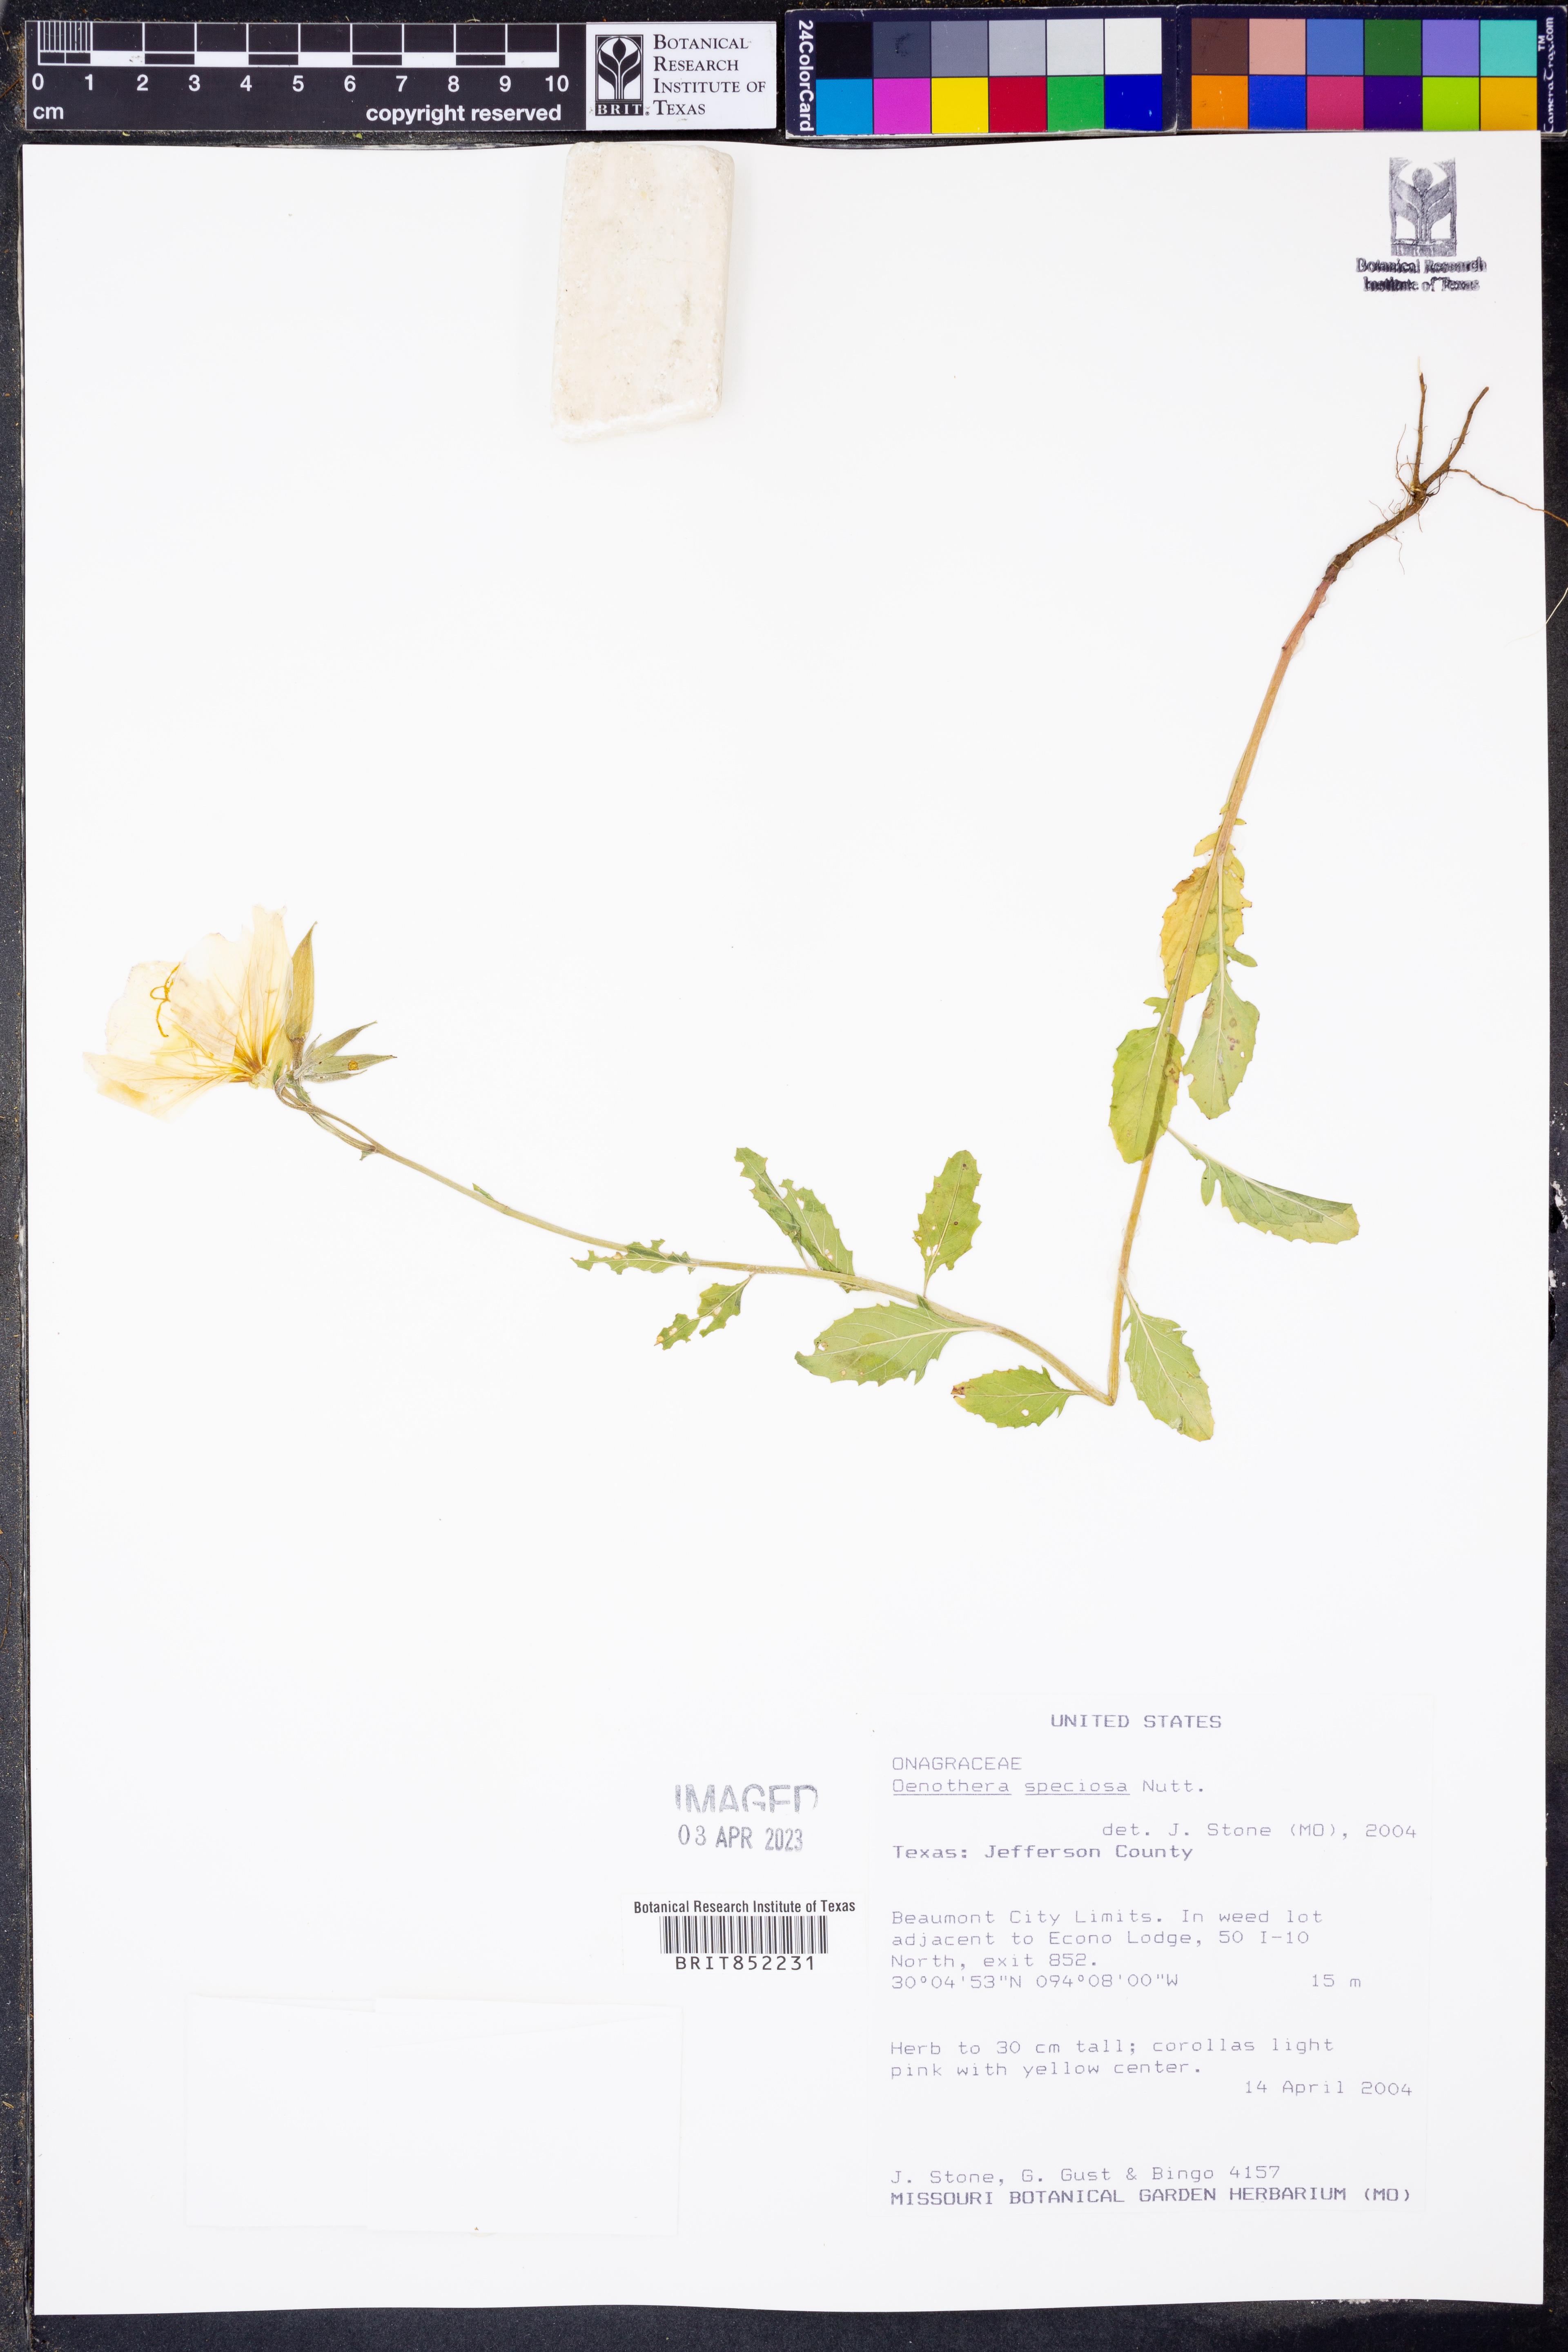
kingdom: Plantae
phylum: Tracheophyta
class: Magnoliopsida
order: Myrtales
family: Onagraceae
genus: Oenothera
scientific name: Oenothera speciosa
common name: White evening-primrose
